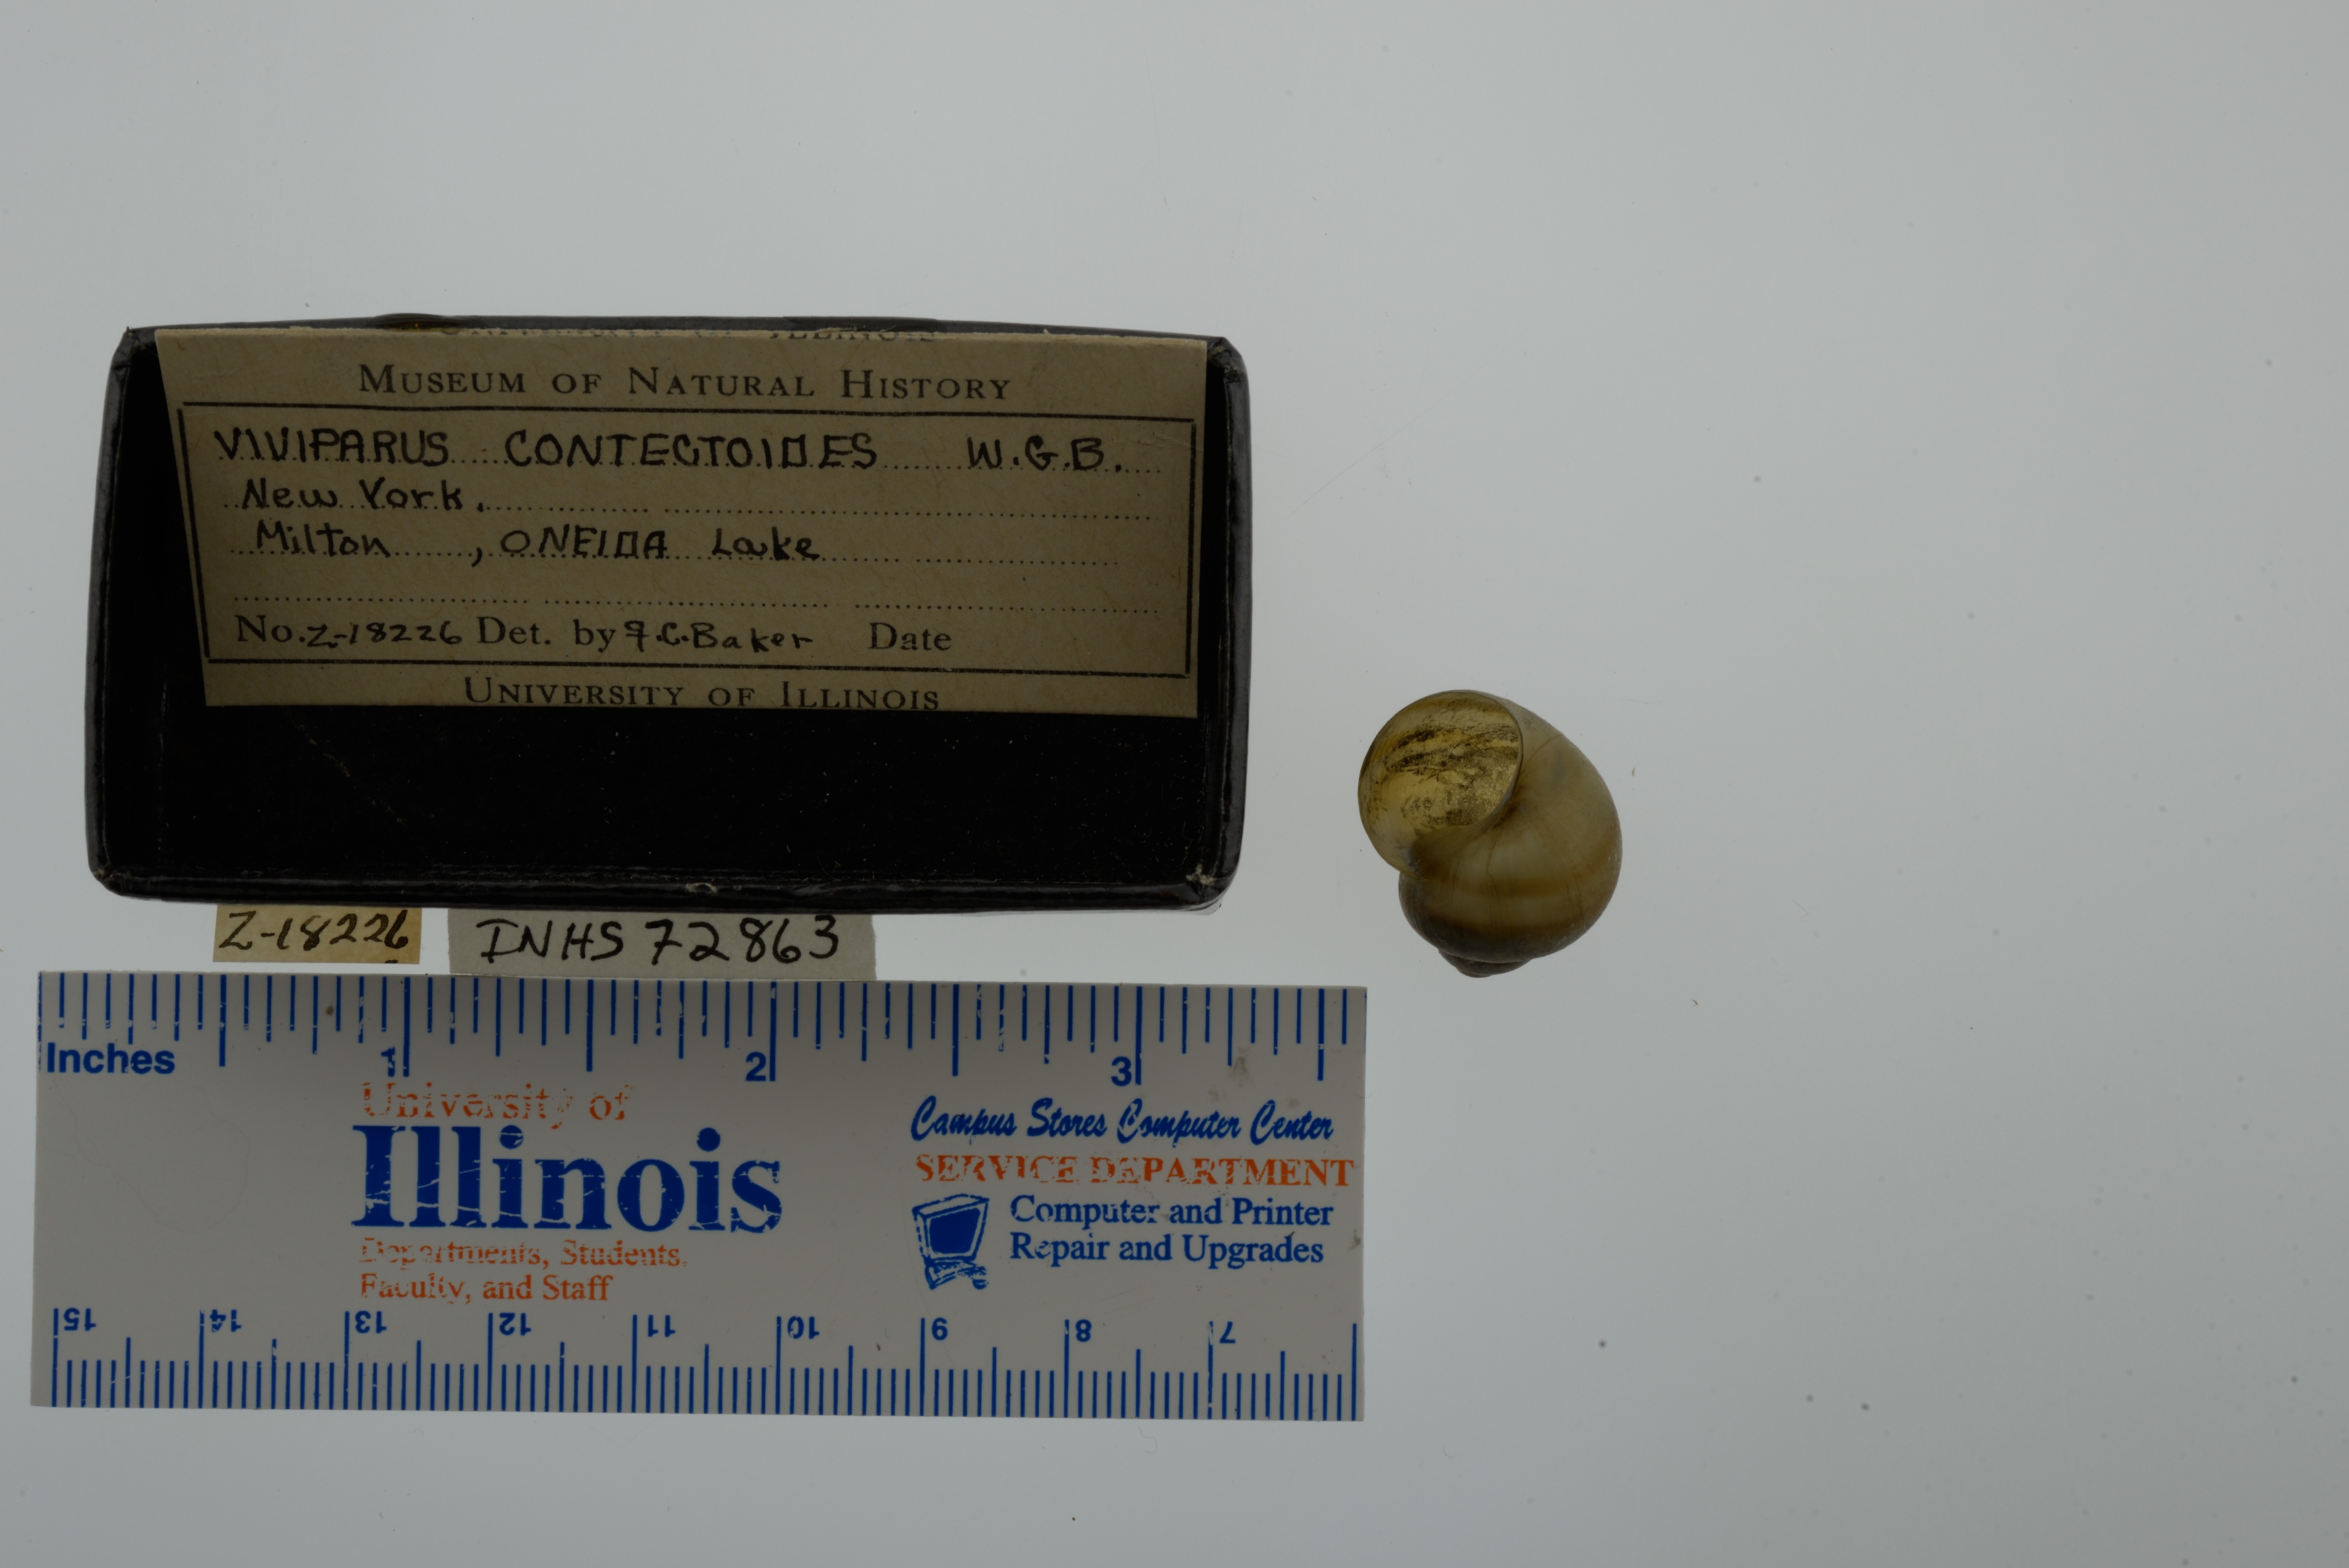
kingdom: Animalia
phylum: Mollusca
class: Gastropoda
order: Architaenioglossa
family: Viviparidae
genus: Callinina
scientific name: Callinina georgiana
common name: Banded mystery snail
